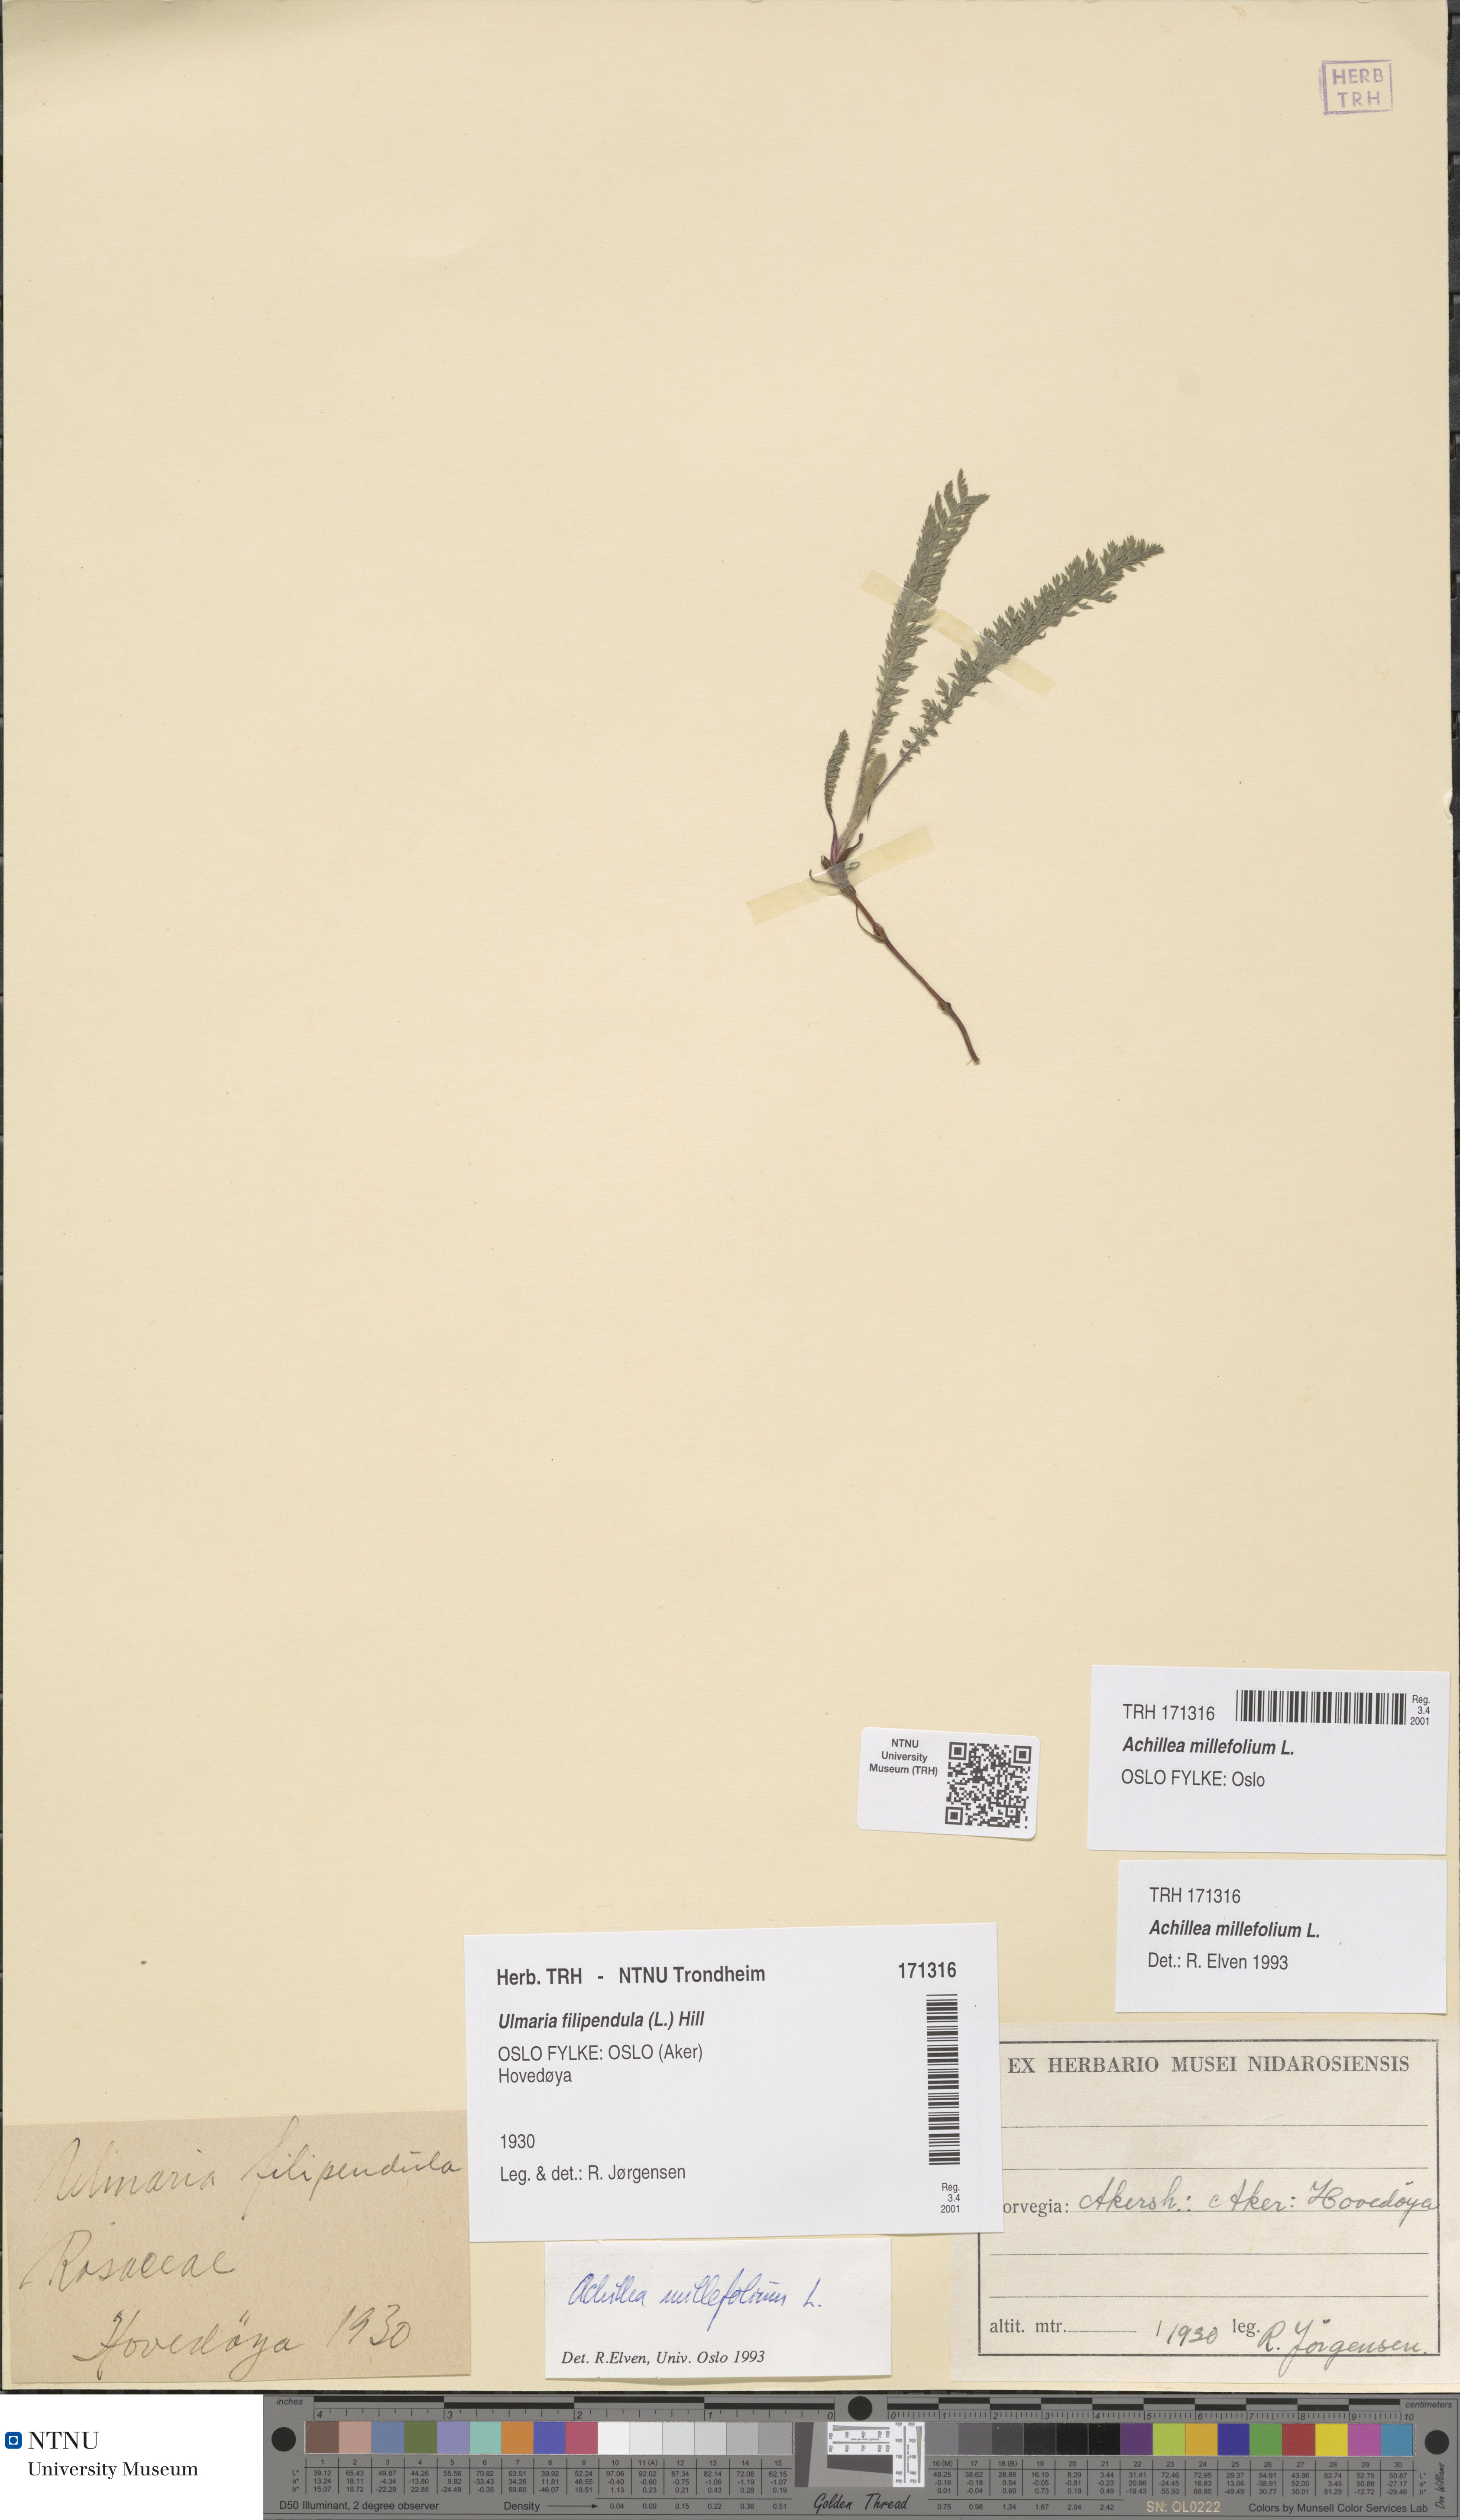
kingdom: Plantae
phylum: Tracheophyta
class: Magnoliopsida
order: Asterales
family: Asteraceae
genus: Achillea
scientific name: Achillea millefolium
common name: Yarrow
